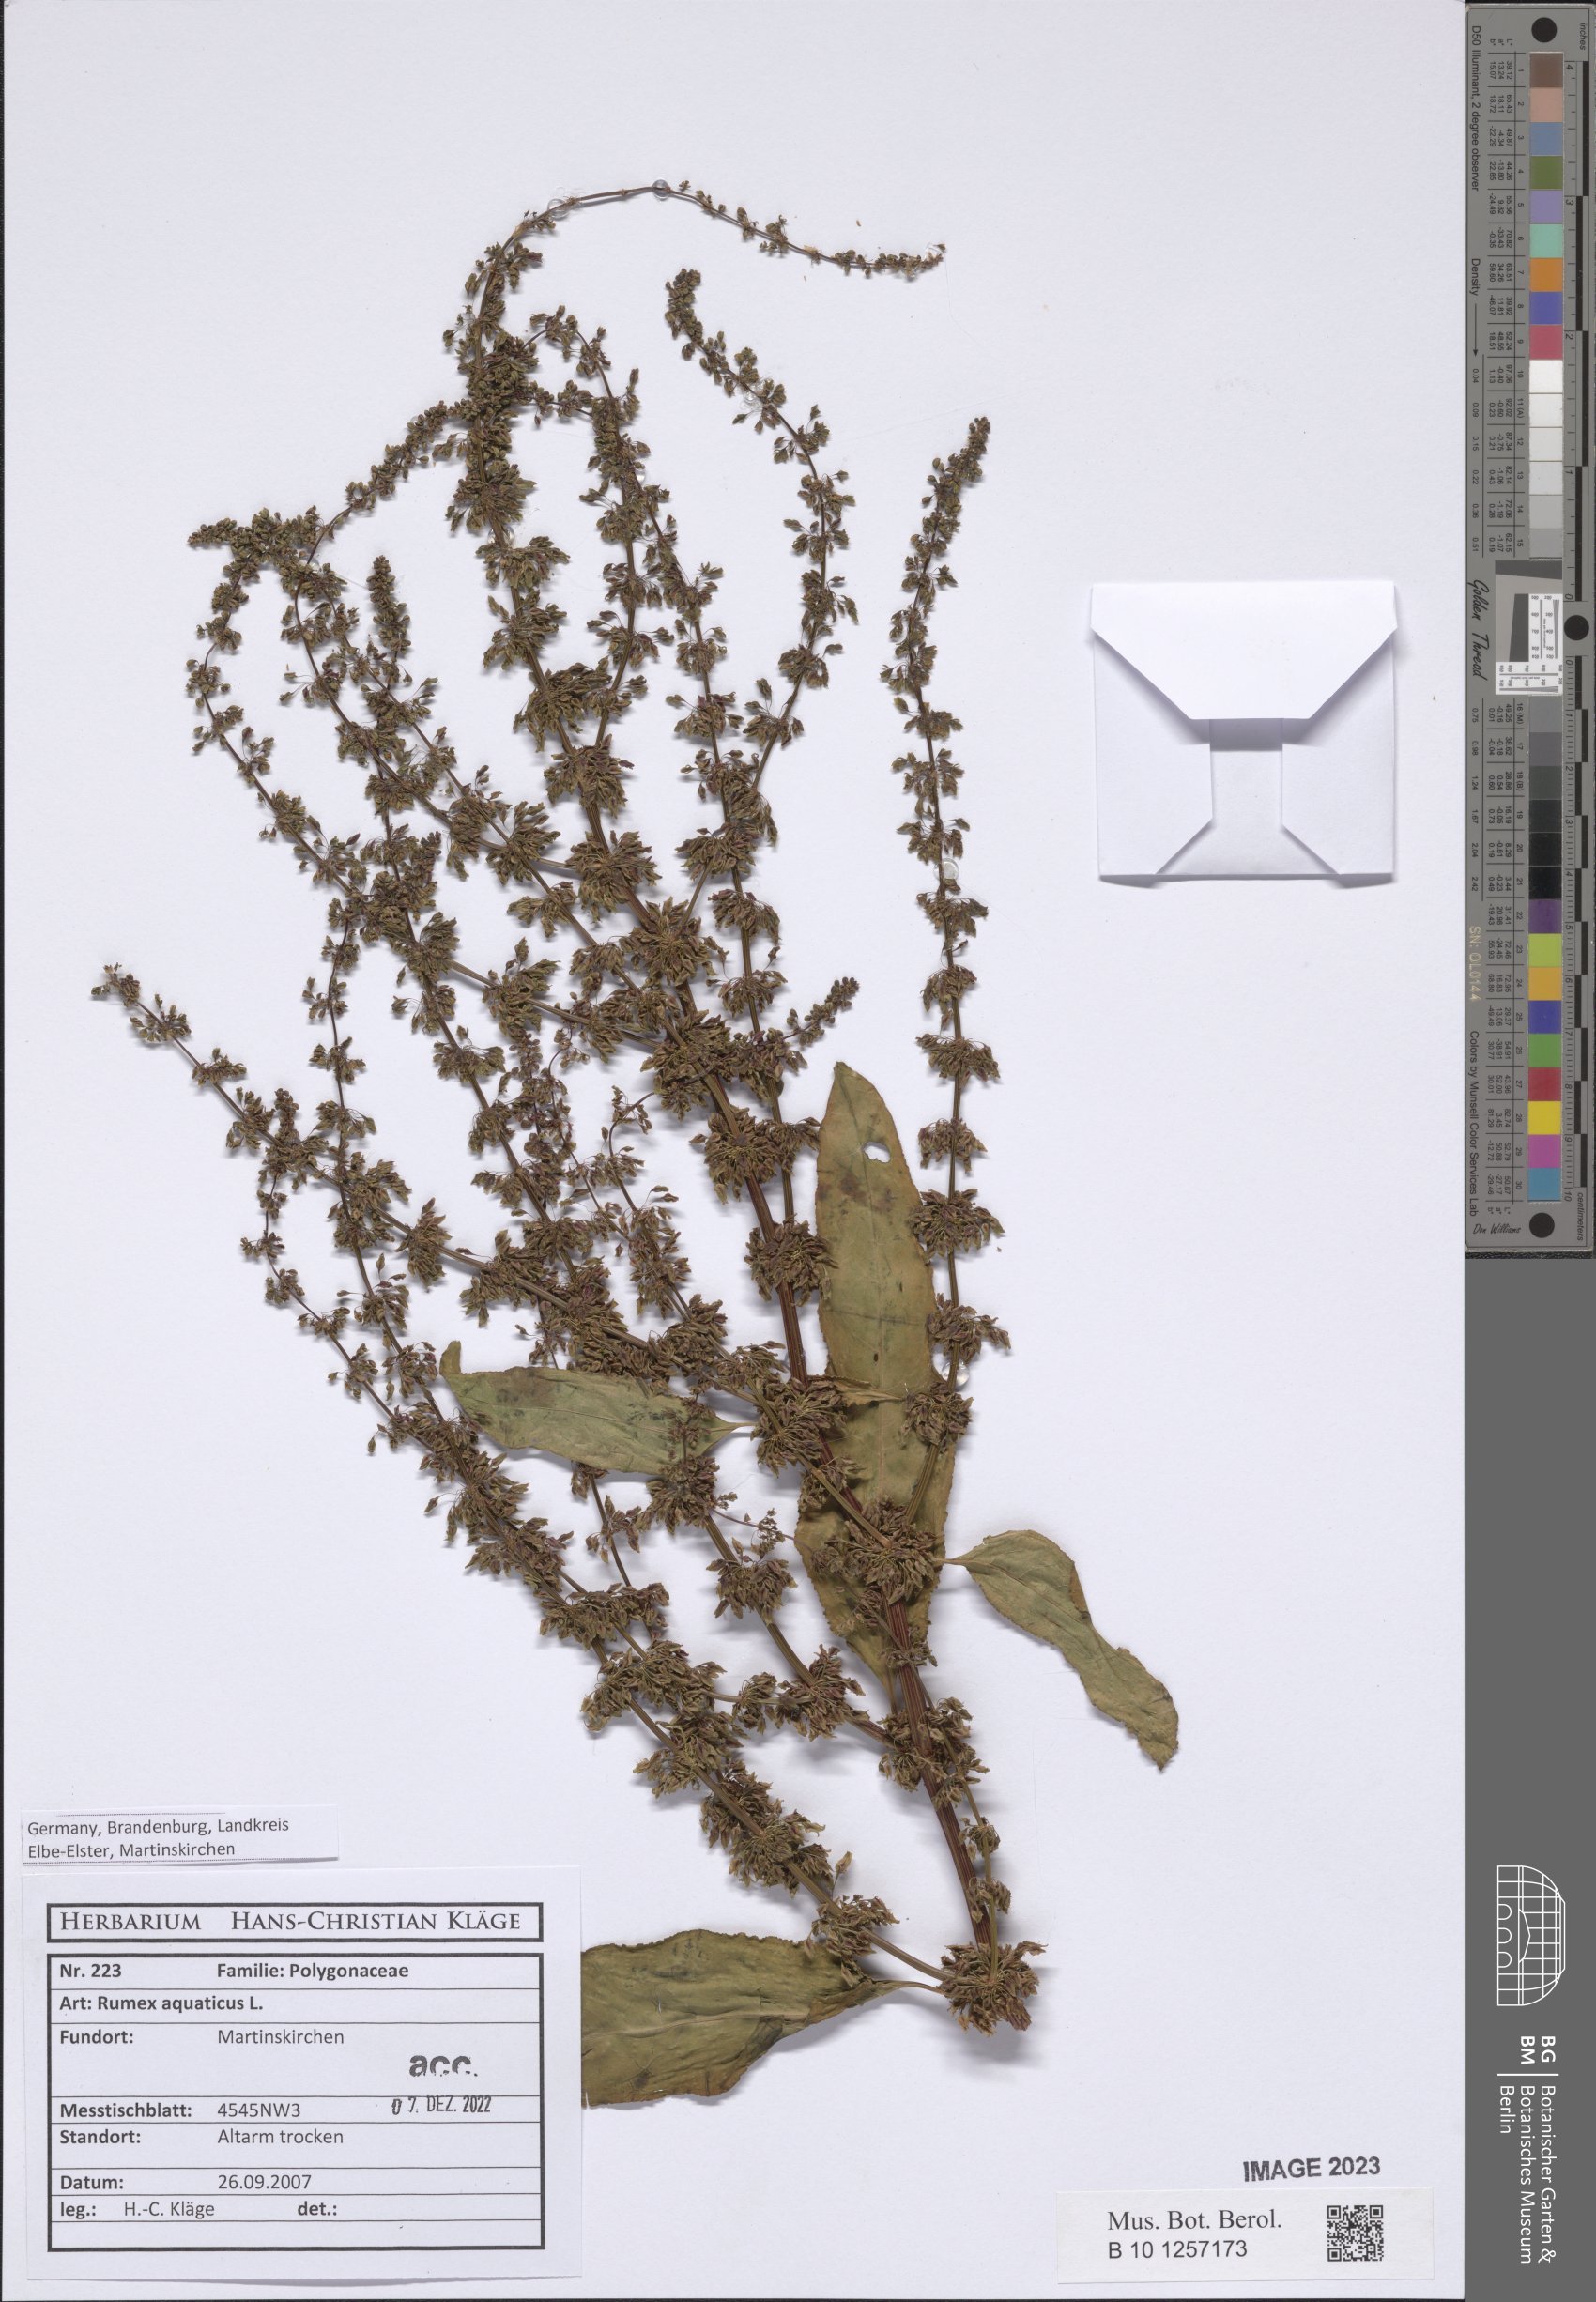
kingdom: Plantae
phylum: Tracheophyta
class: Magnoliopsida
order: Caryophyllales
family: Polygonaceae
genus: Rumex
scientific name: Rumex aquaticus
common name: Scottish dock
